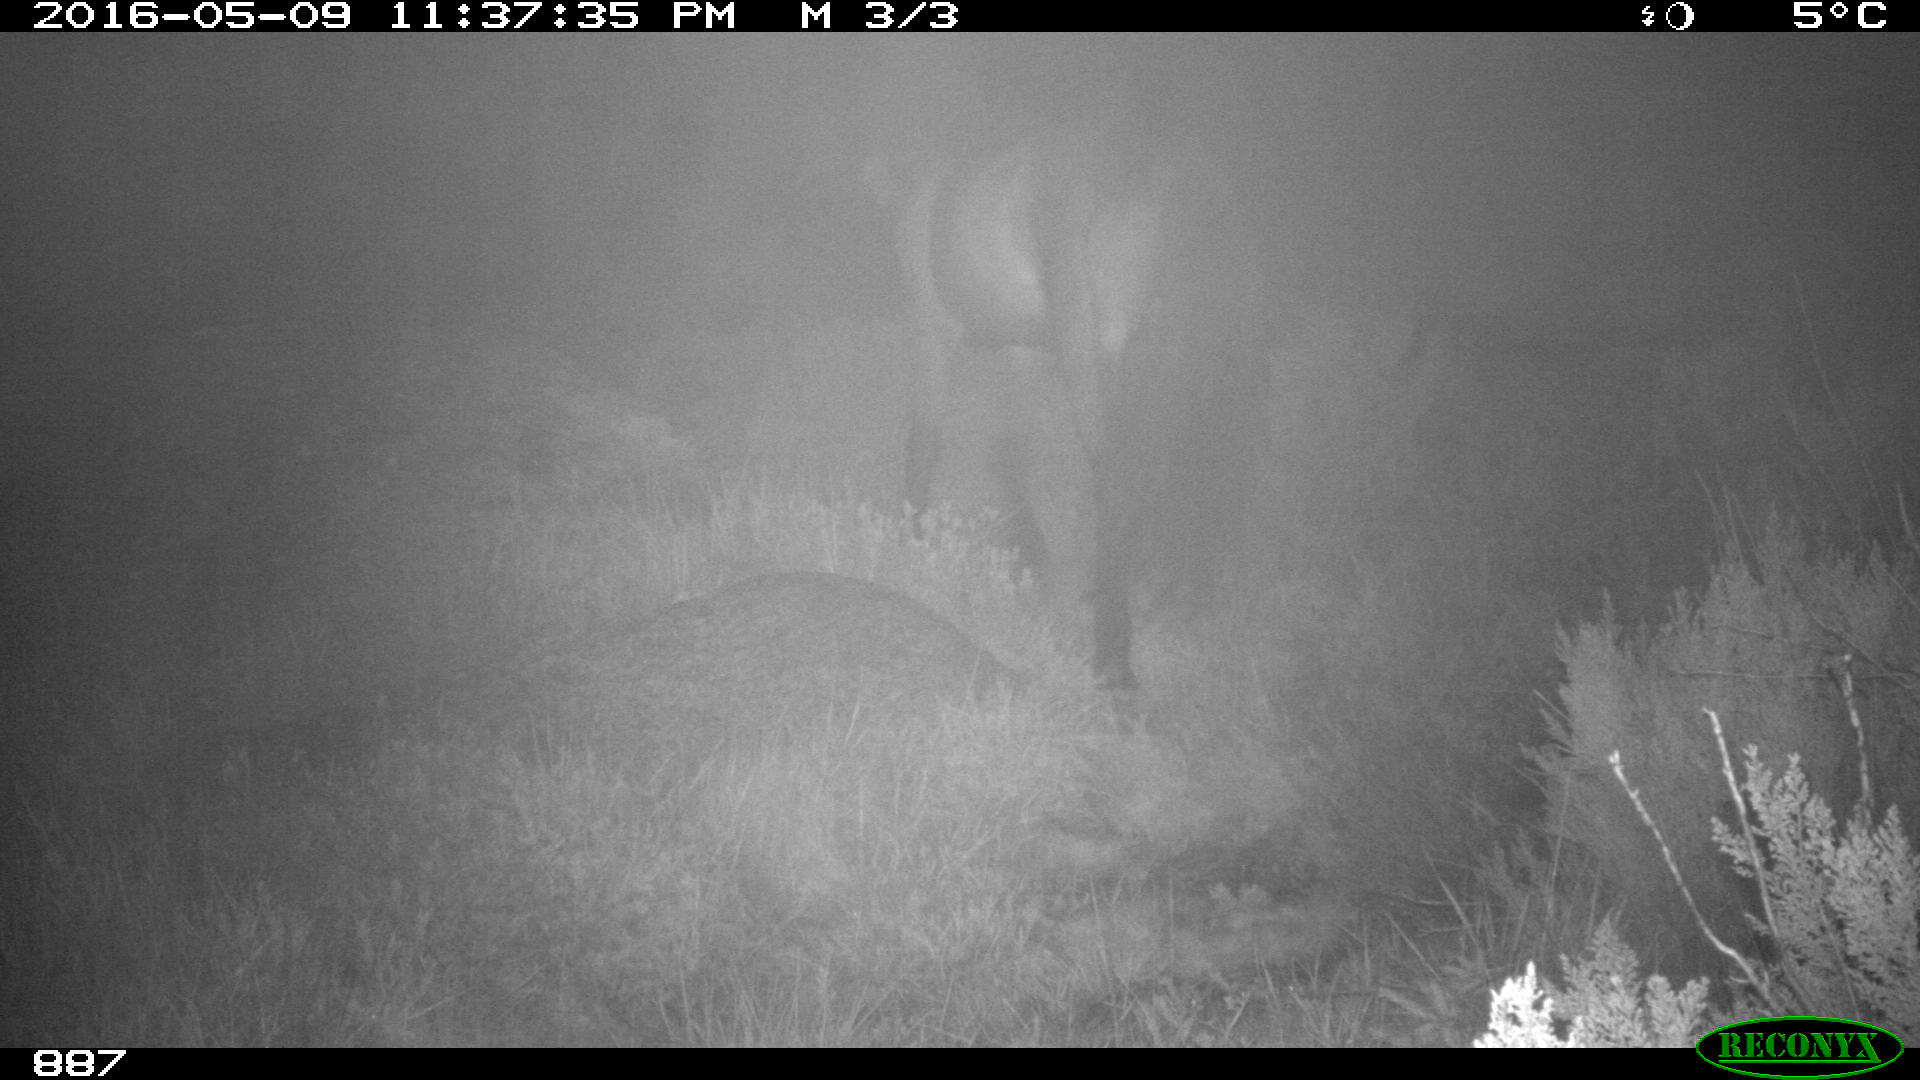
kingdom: Animalia
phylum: Chordata
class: Mammalia
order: Perissodactyla
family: Equidae
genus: Equus
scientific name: Equus caballus
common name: Horse
